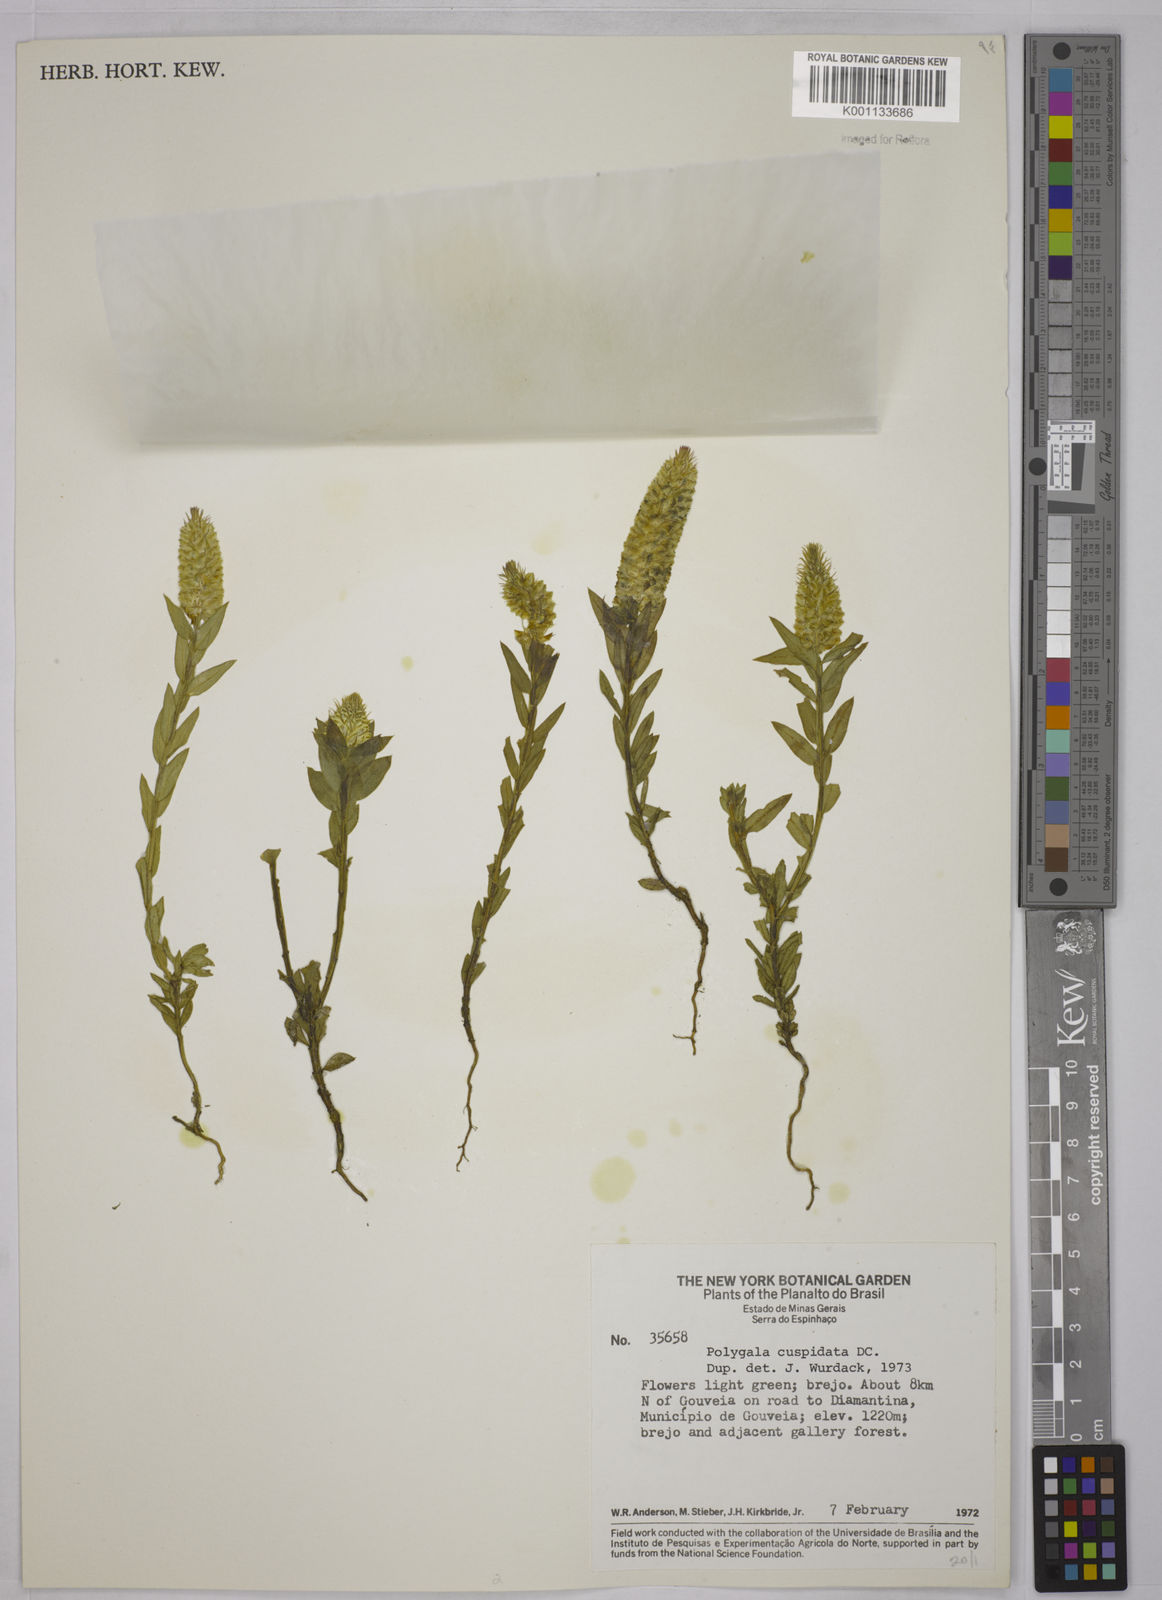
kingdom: Plantae
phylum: Tracheophyta
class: Magnoliopsida
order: Fabales
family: Polygalaceae
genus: Polygala
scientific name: Polygala cuspidata
